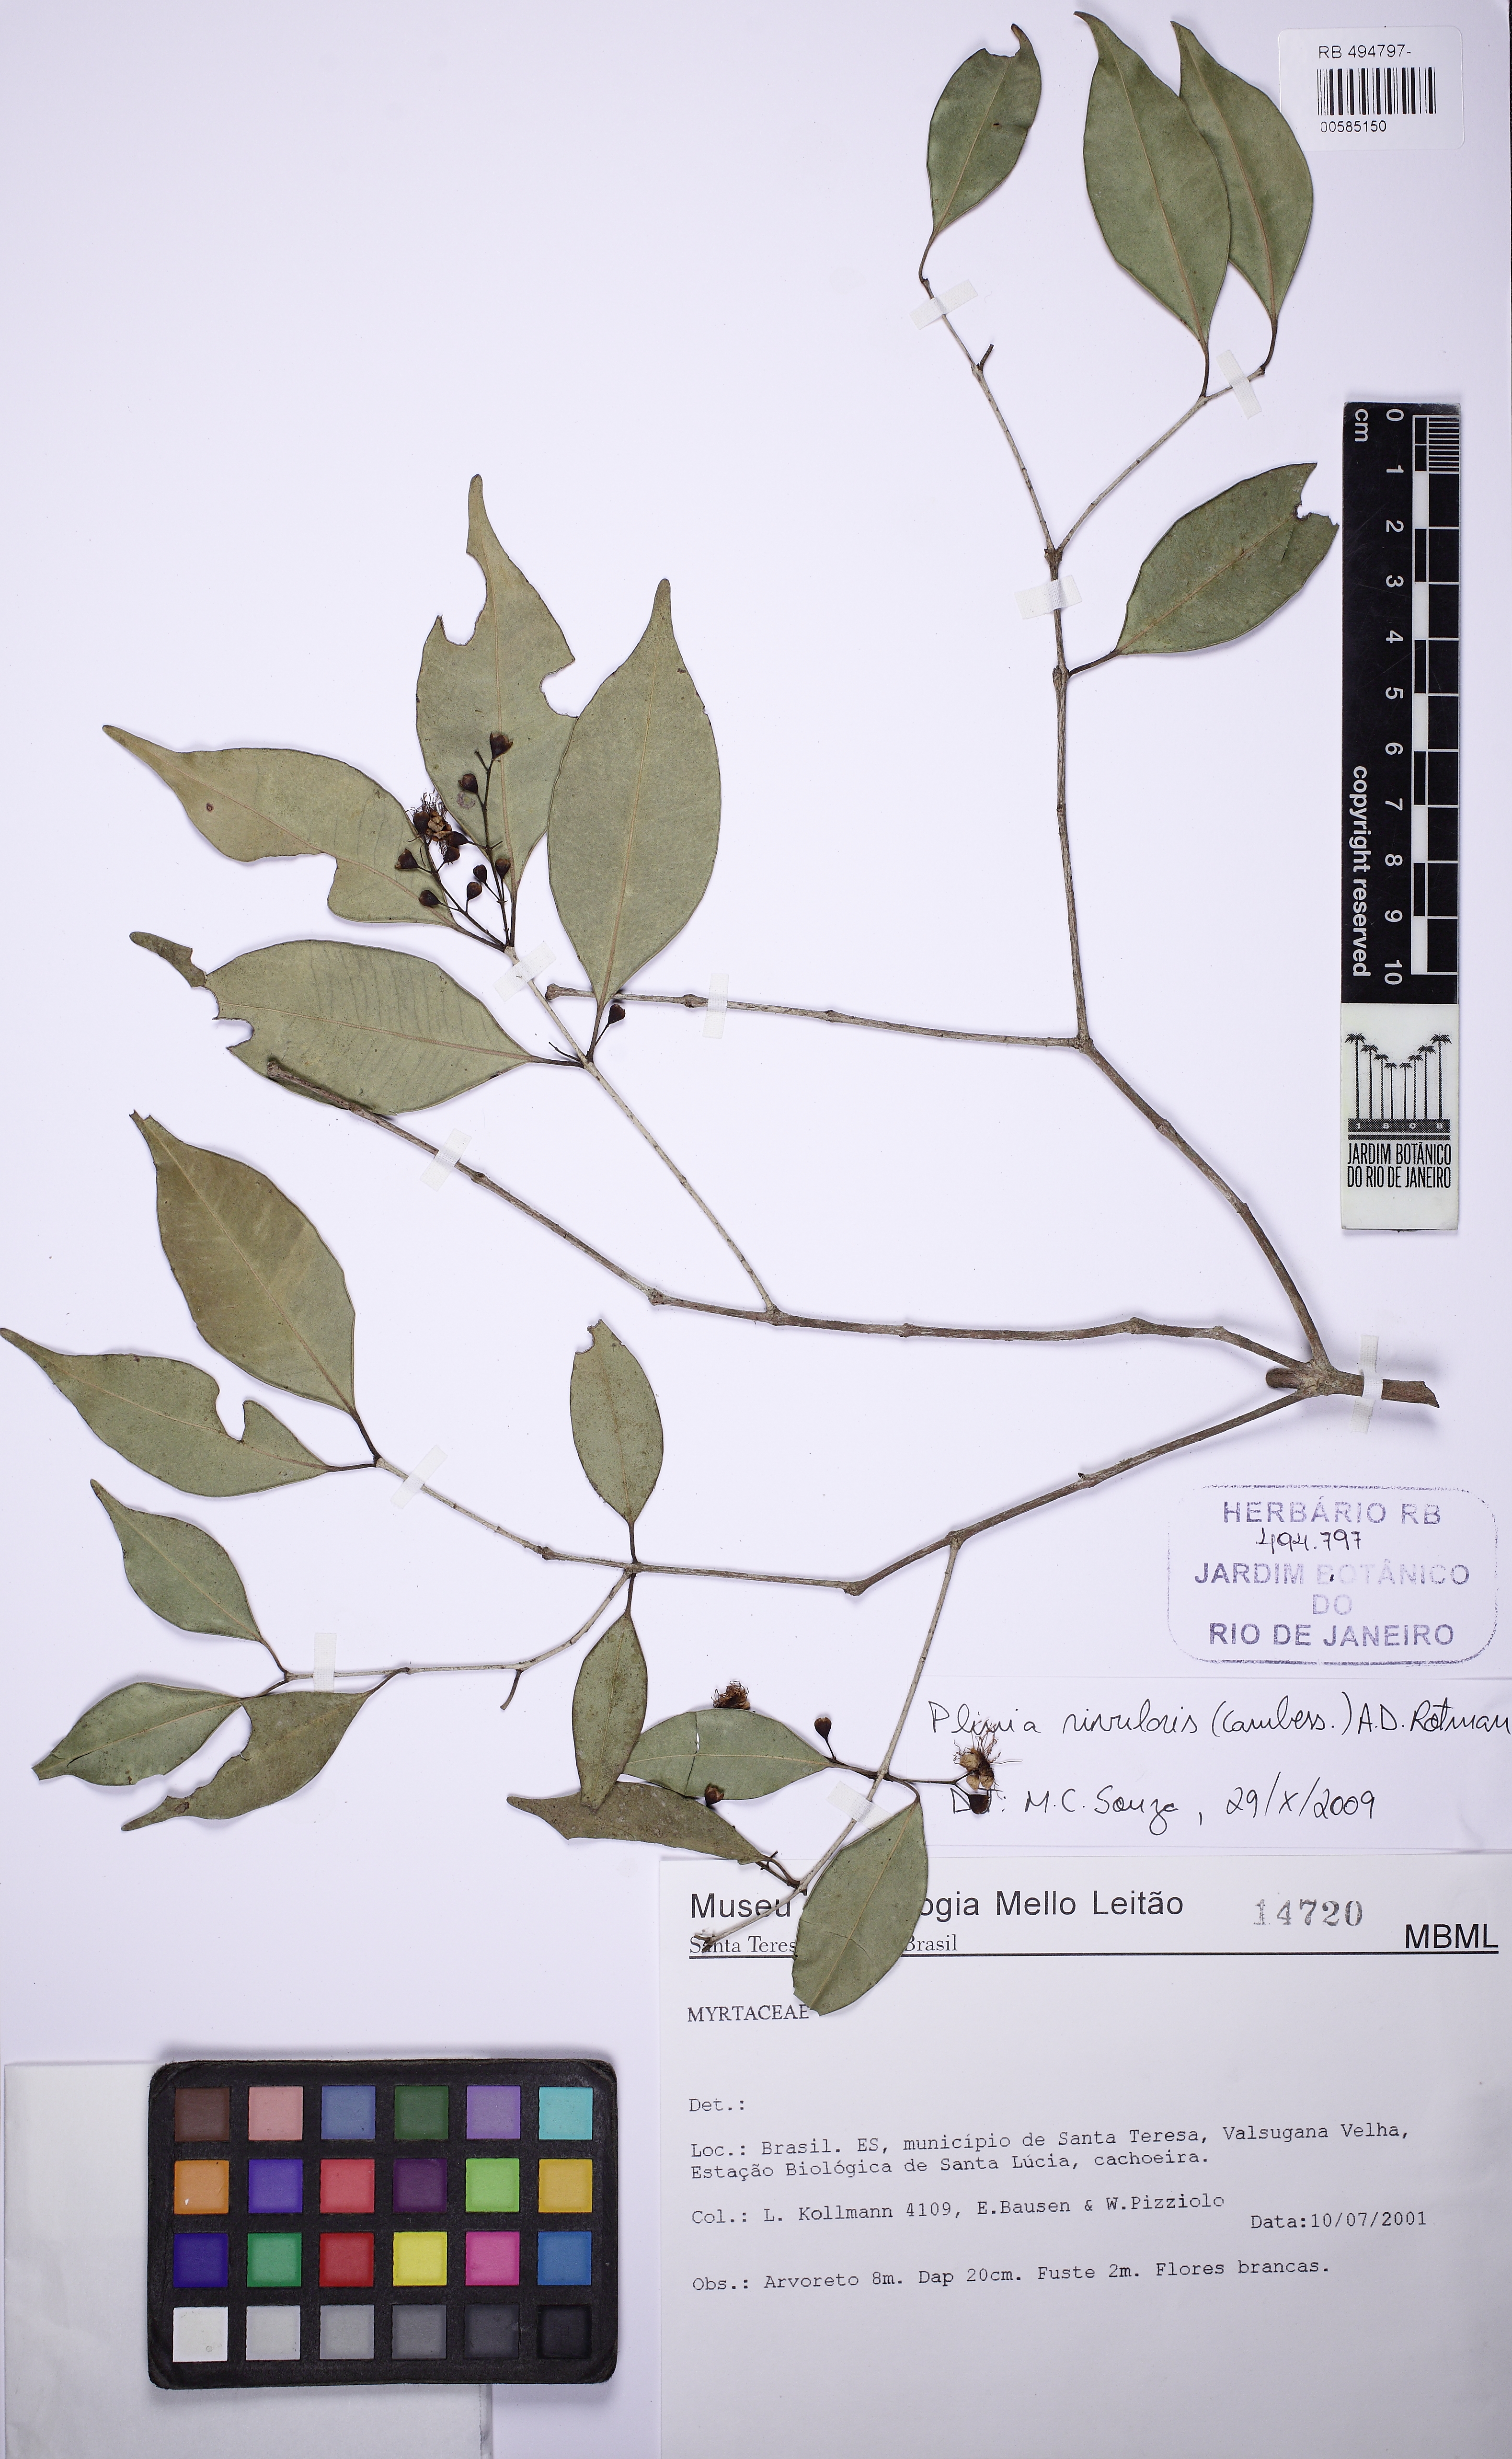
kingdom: Plantae
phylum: Tracheophyta
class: Magnoliopsida
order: Myrtales
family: Myrtaceae
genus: Plinia
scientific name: Plinia rivularis
